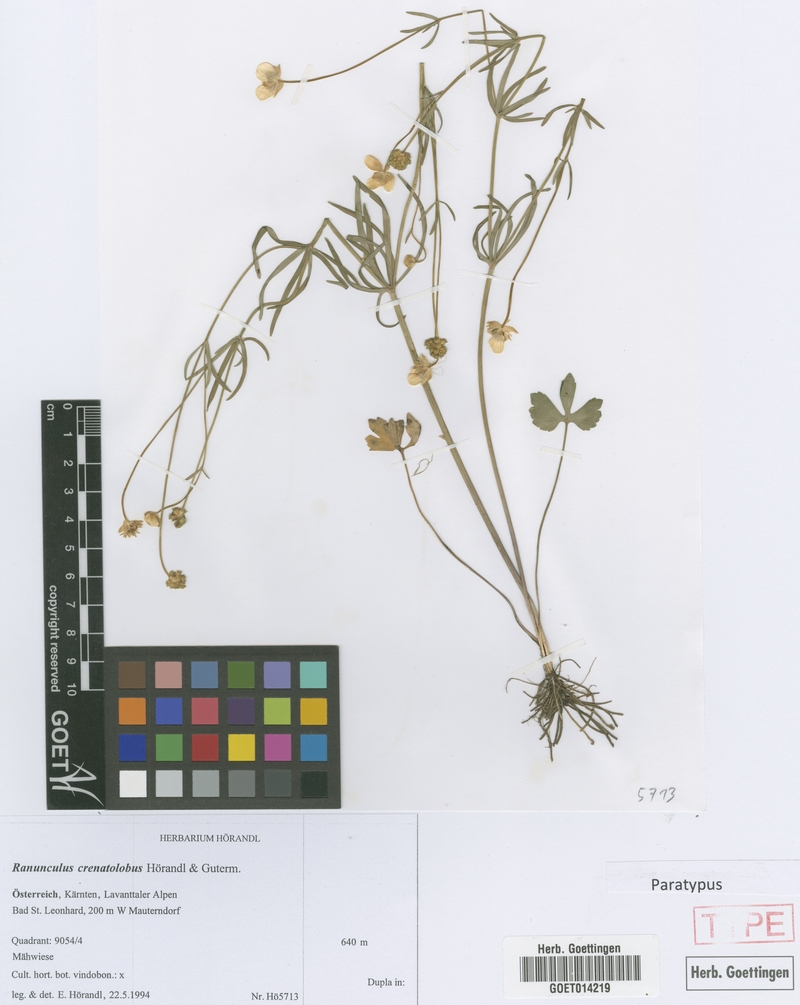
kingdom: Plantae
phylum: Tracheophyta
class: Magnoliopsida
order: Ranunculales
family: Ranunculaceae
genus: Ranunculus
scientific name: Ranunculus crenatolobus
